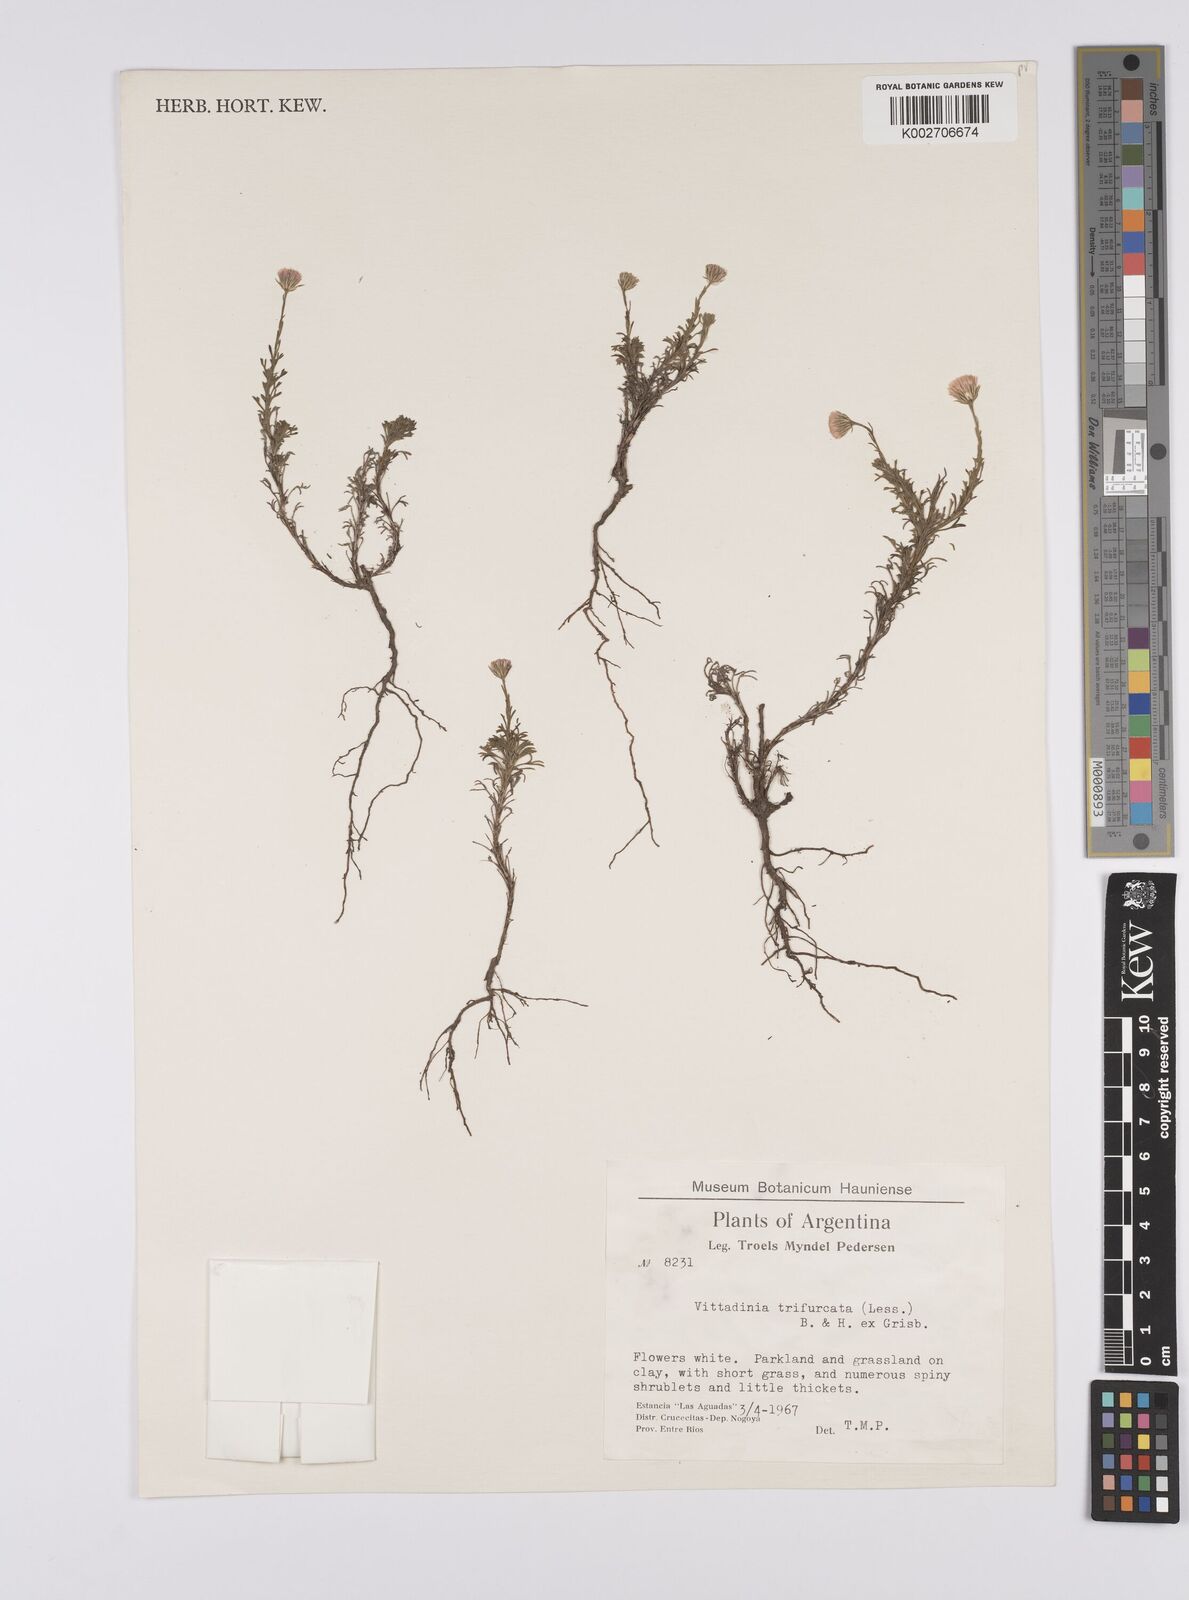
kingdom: Plantae
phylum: Tracheophyta
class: Magnoliopsida
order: Asterales
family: Asteraceae
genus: Microgyne
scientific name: Microgyne trifurcata
